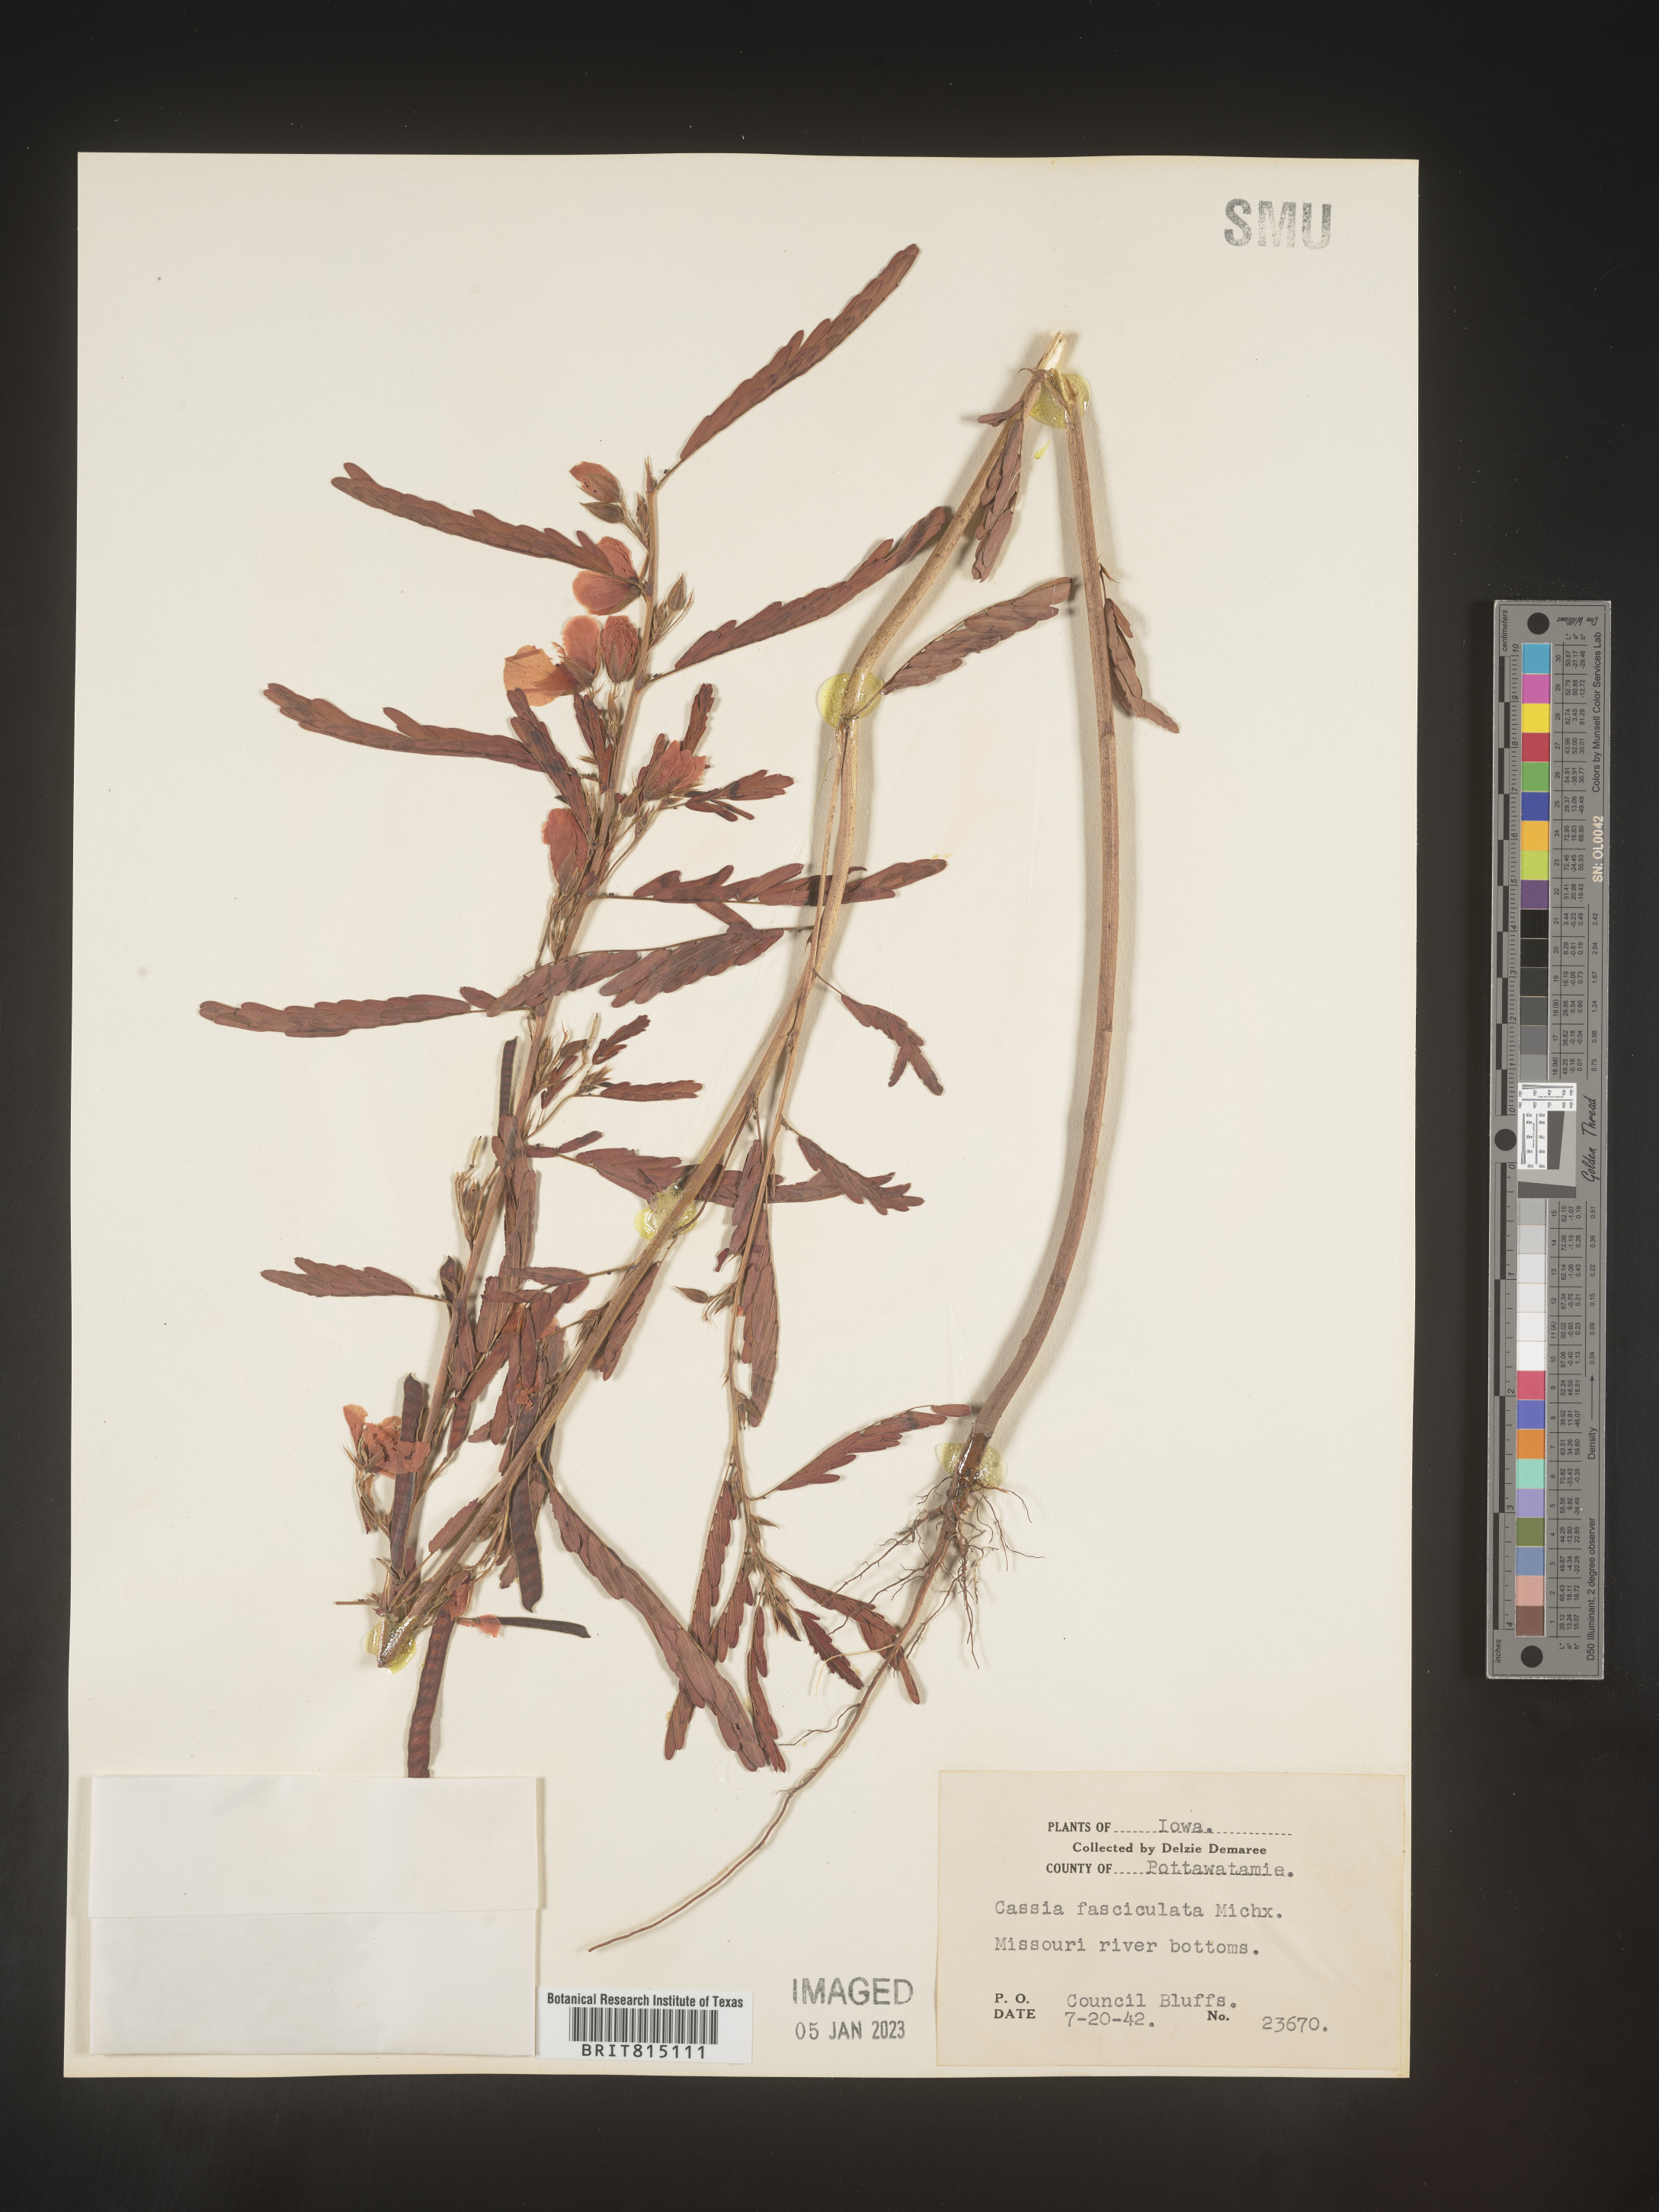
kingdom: Plantae
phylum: Tracheophyta
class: Magnoliopsida
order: Fabales
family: Fabaceae
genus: Chamaecrista
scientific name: Chamaecrista fasciculata
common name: Golden cassia
